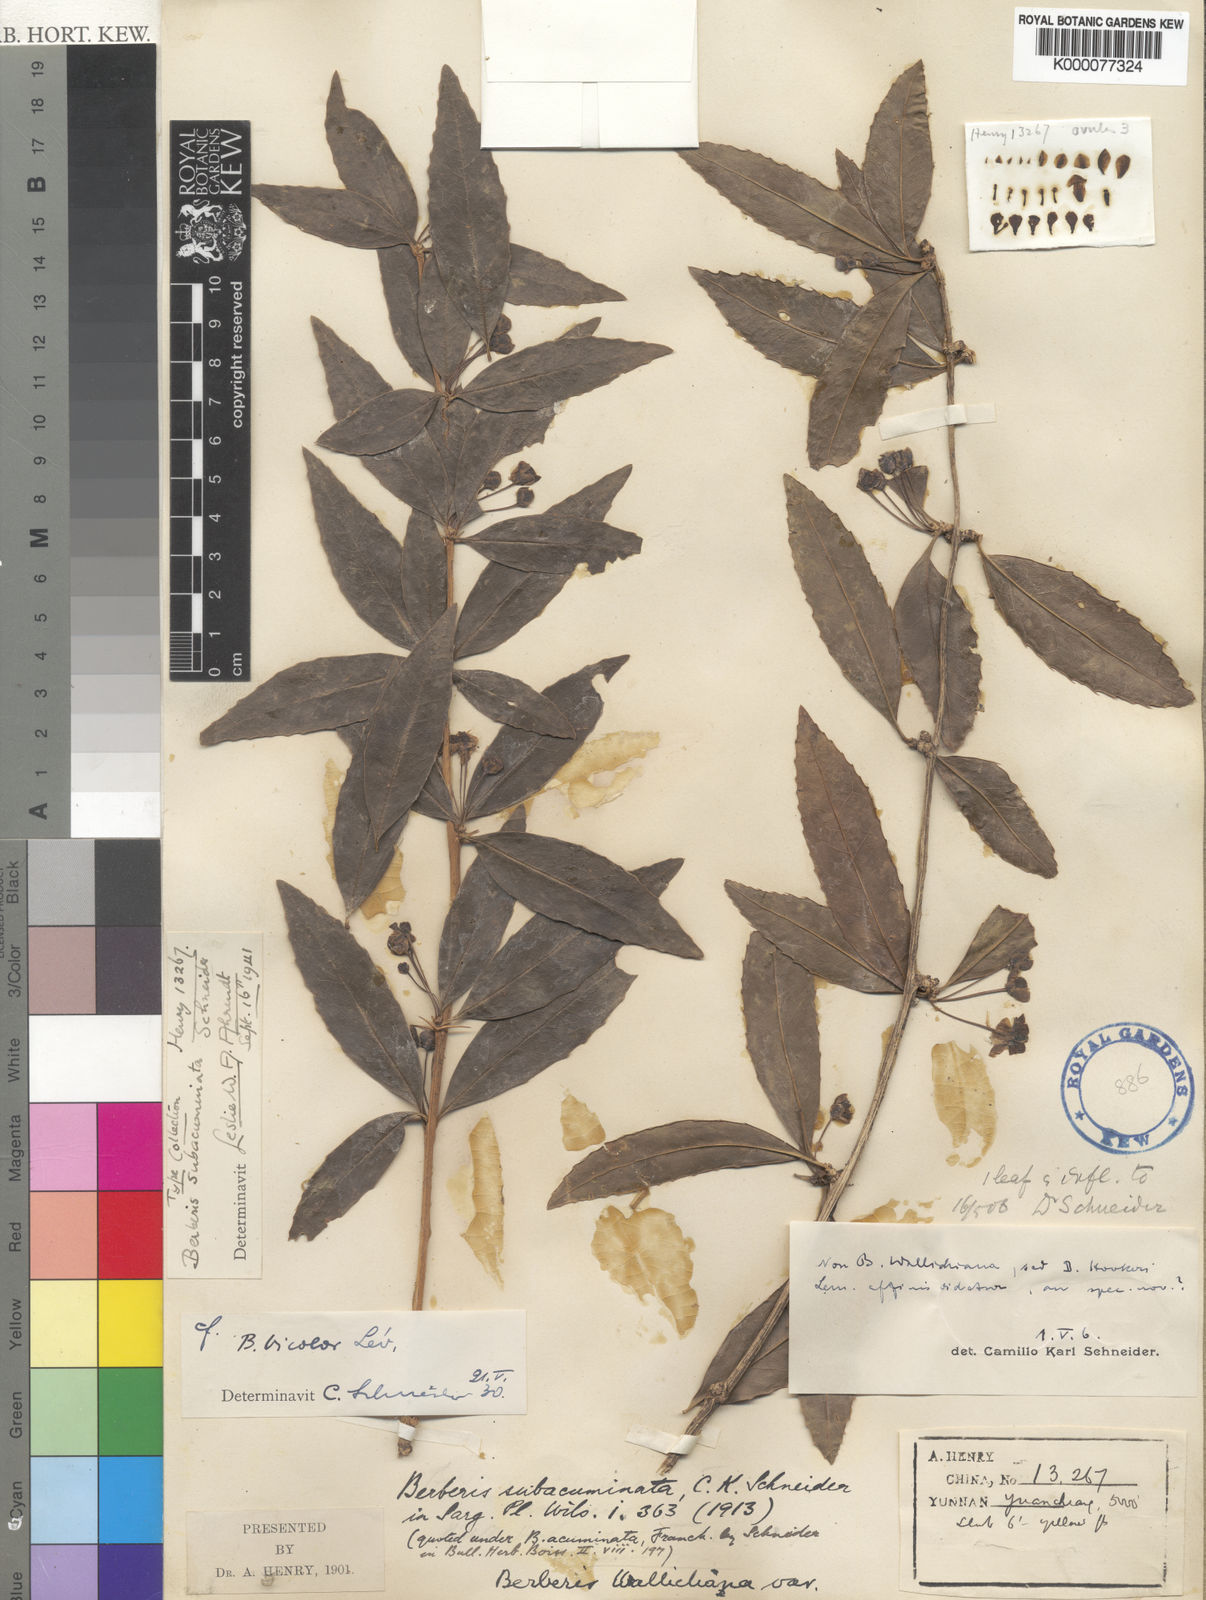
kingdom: Plantae
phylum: Tracheophyta
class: Magnoliopsida
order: Ranunculales
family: Berberidaceae
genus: Berberis
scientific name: Berberis subacuminata
